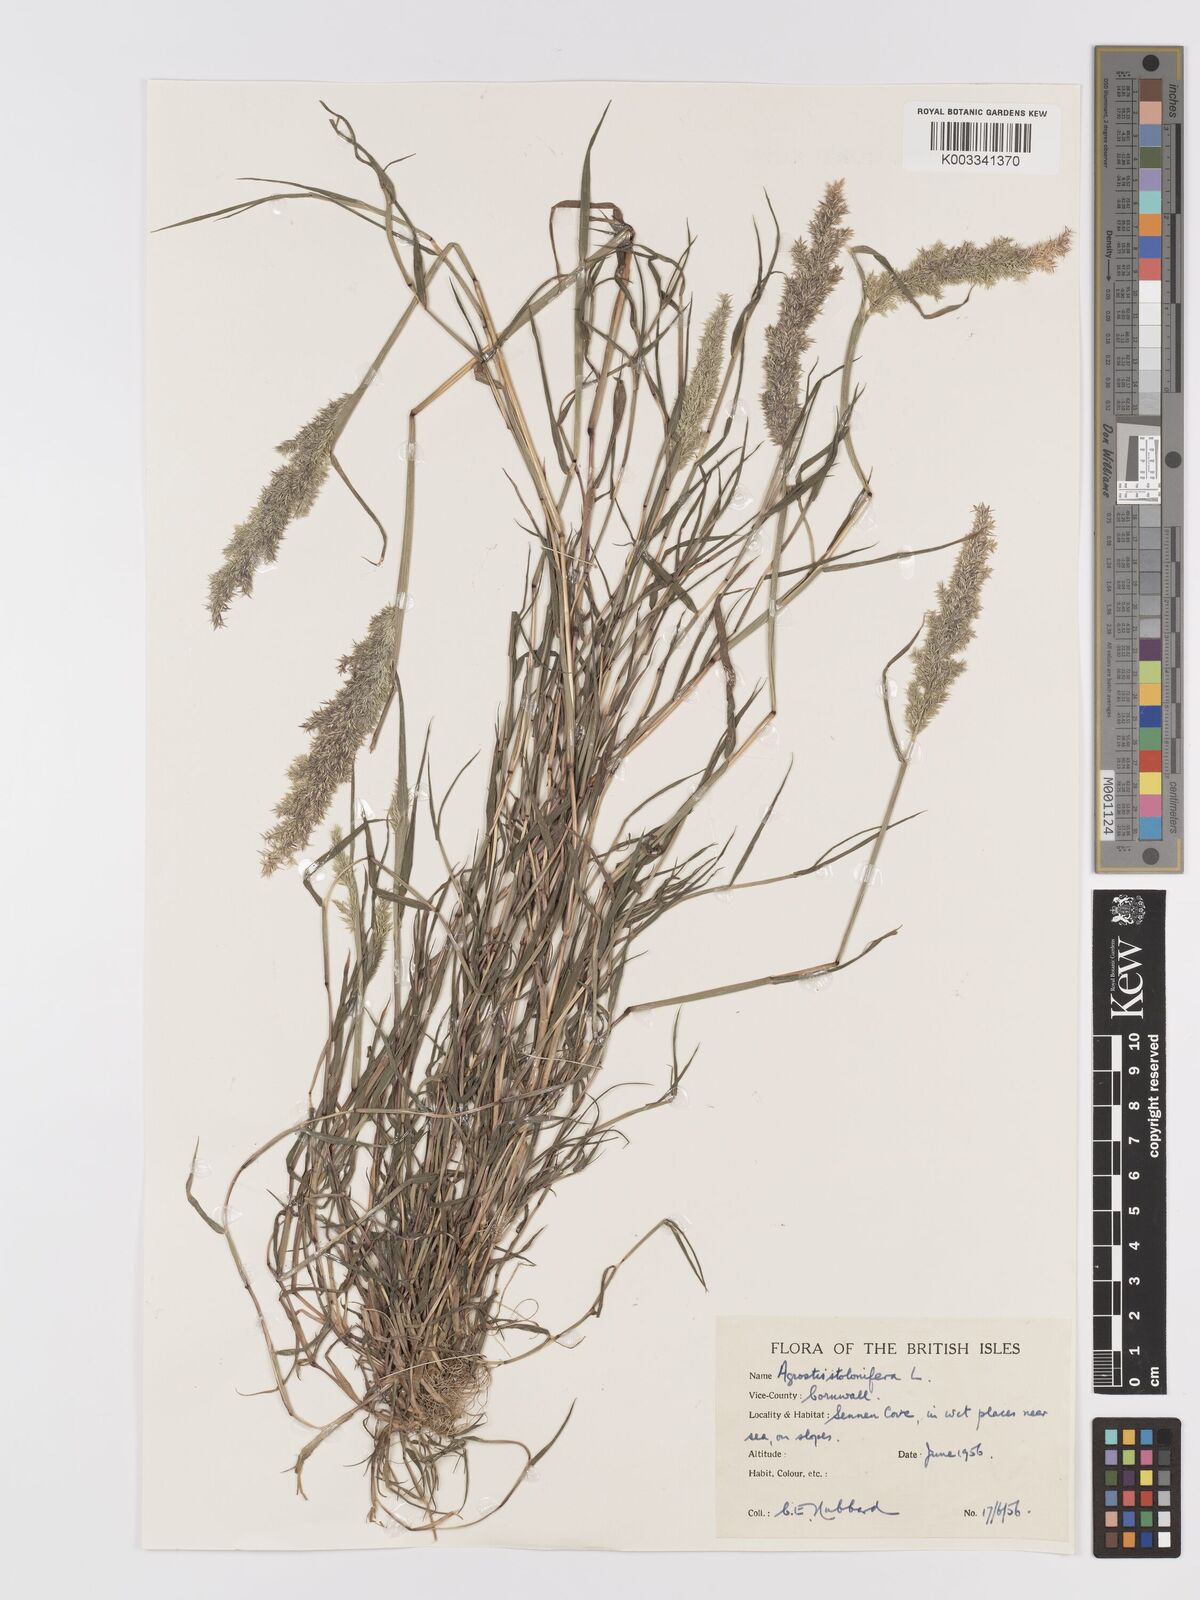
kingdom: Plantae
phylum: Tracheophyta
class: Liliopsida
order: Poales
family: Poaceae
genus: Agrostis
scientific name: Agrostis stolonifera
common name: Creeping bentgrass
